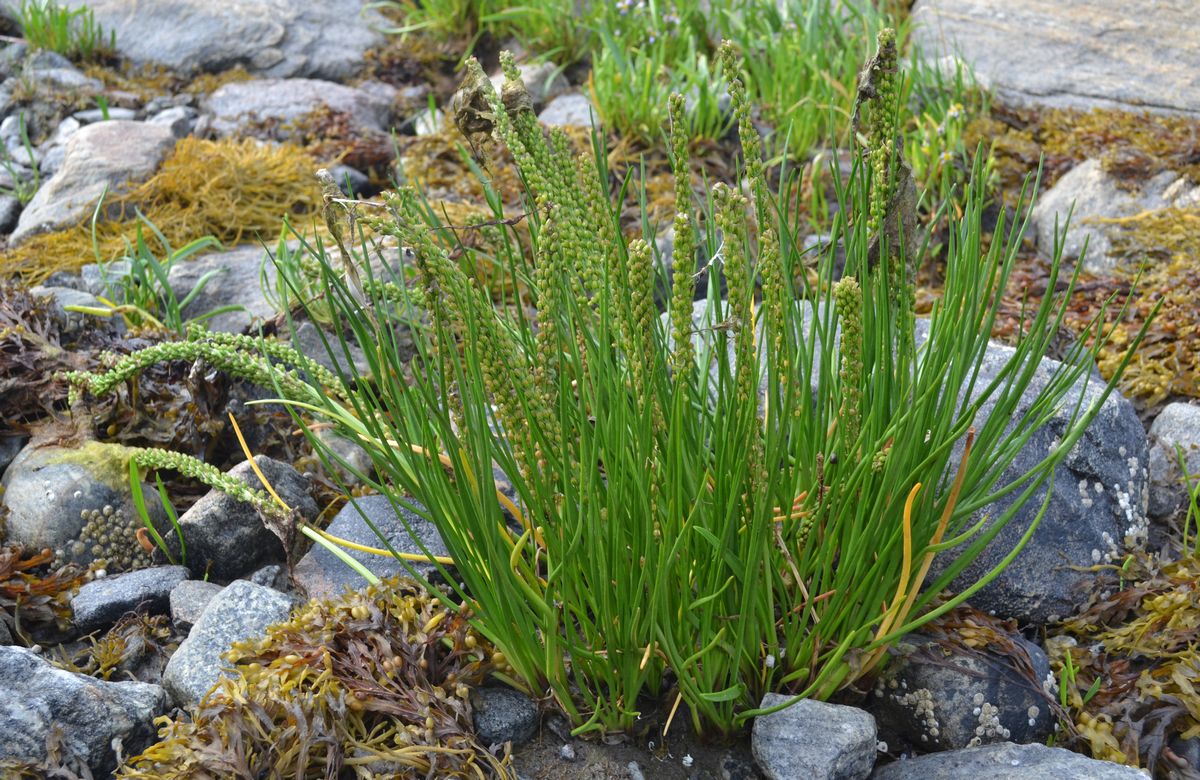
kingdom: Plantae
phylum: Tracheophyta
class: Liliopsida
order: Alismatales
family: Juncaginaceae
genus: Triglochin
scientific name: Triglochin maritima
